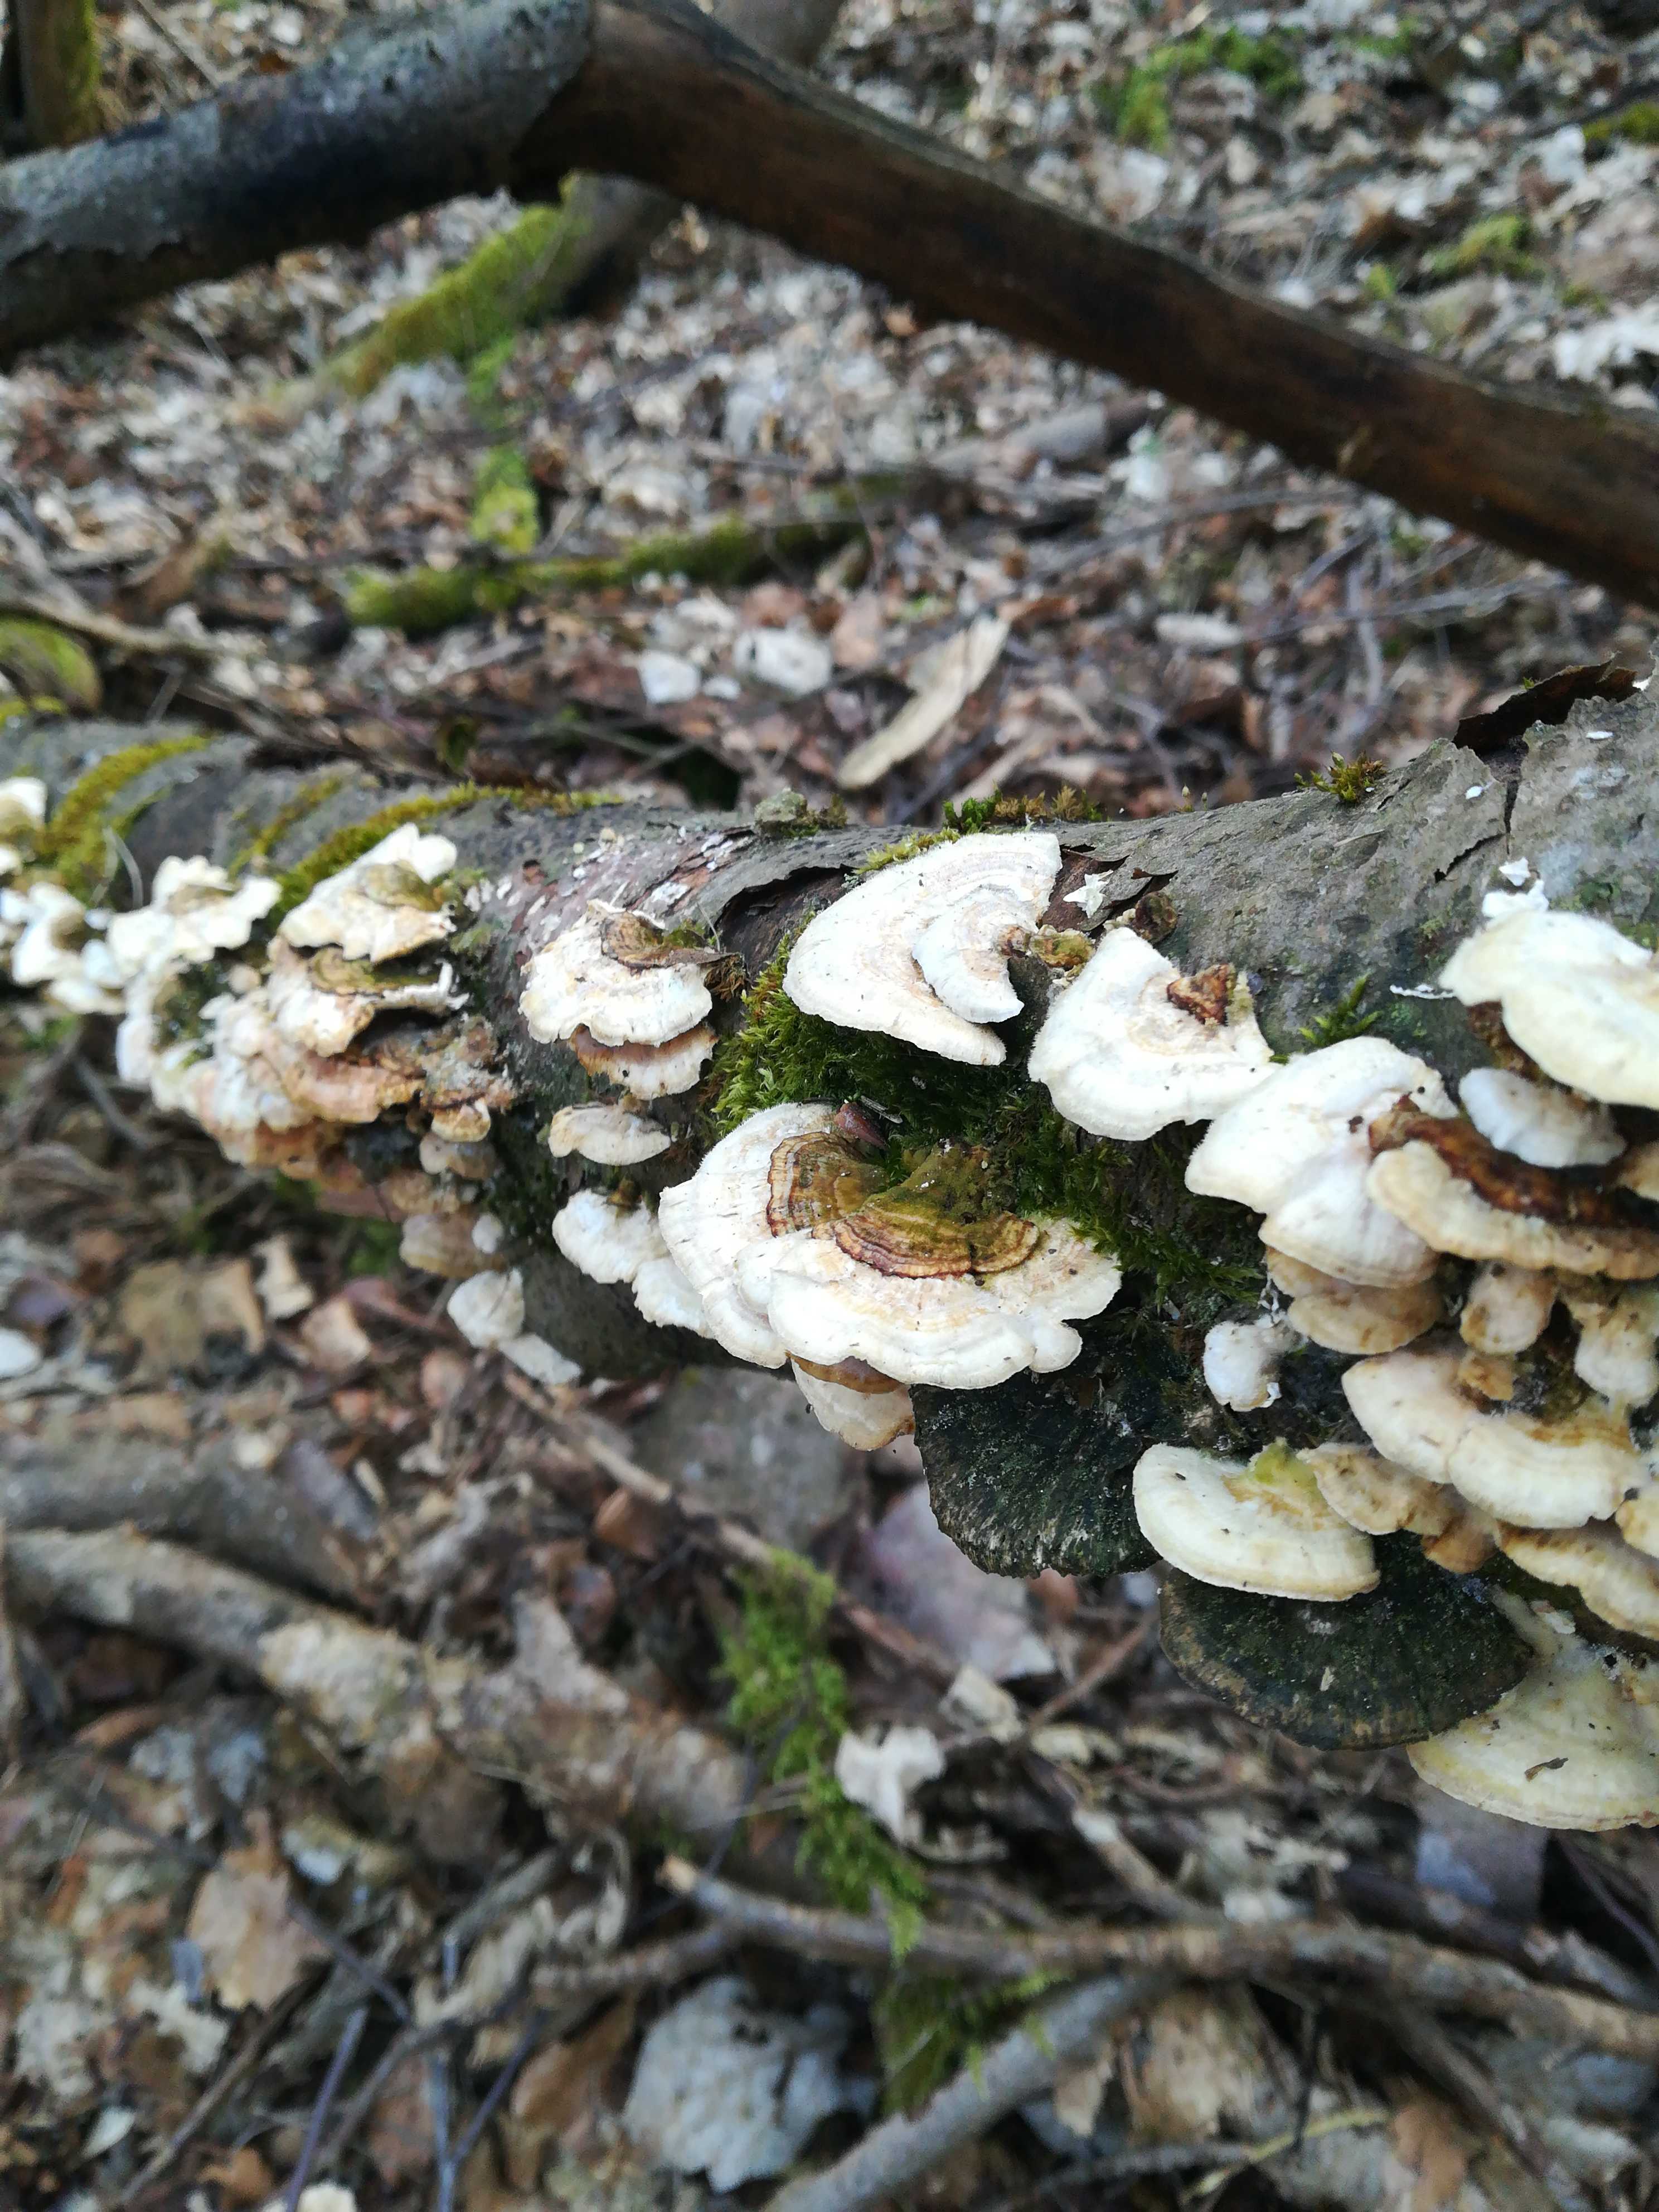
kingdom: Fungi
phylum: Basidiomycota
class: Agaricomycetes
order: Polyporales
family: Polyporaceae
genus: Trametes
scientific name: Trametes hirsuta
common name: håret læderporesvamp
